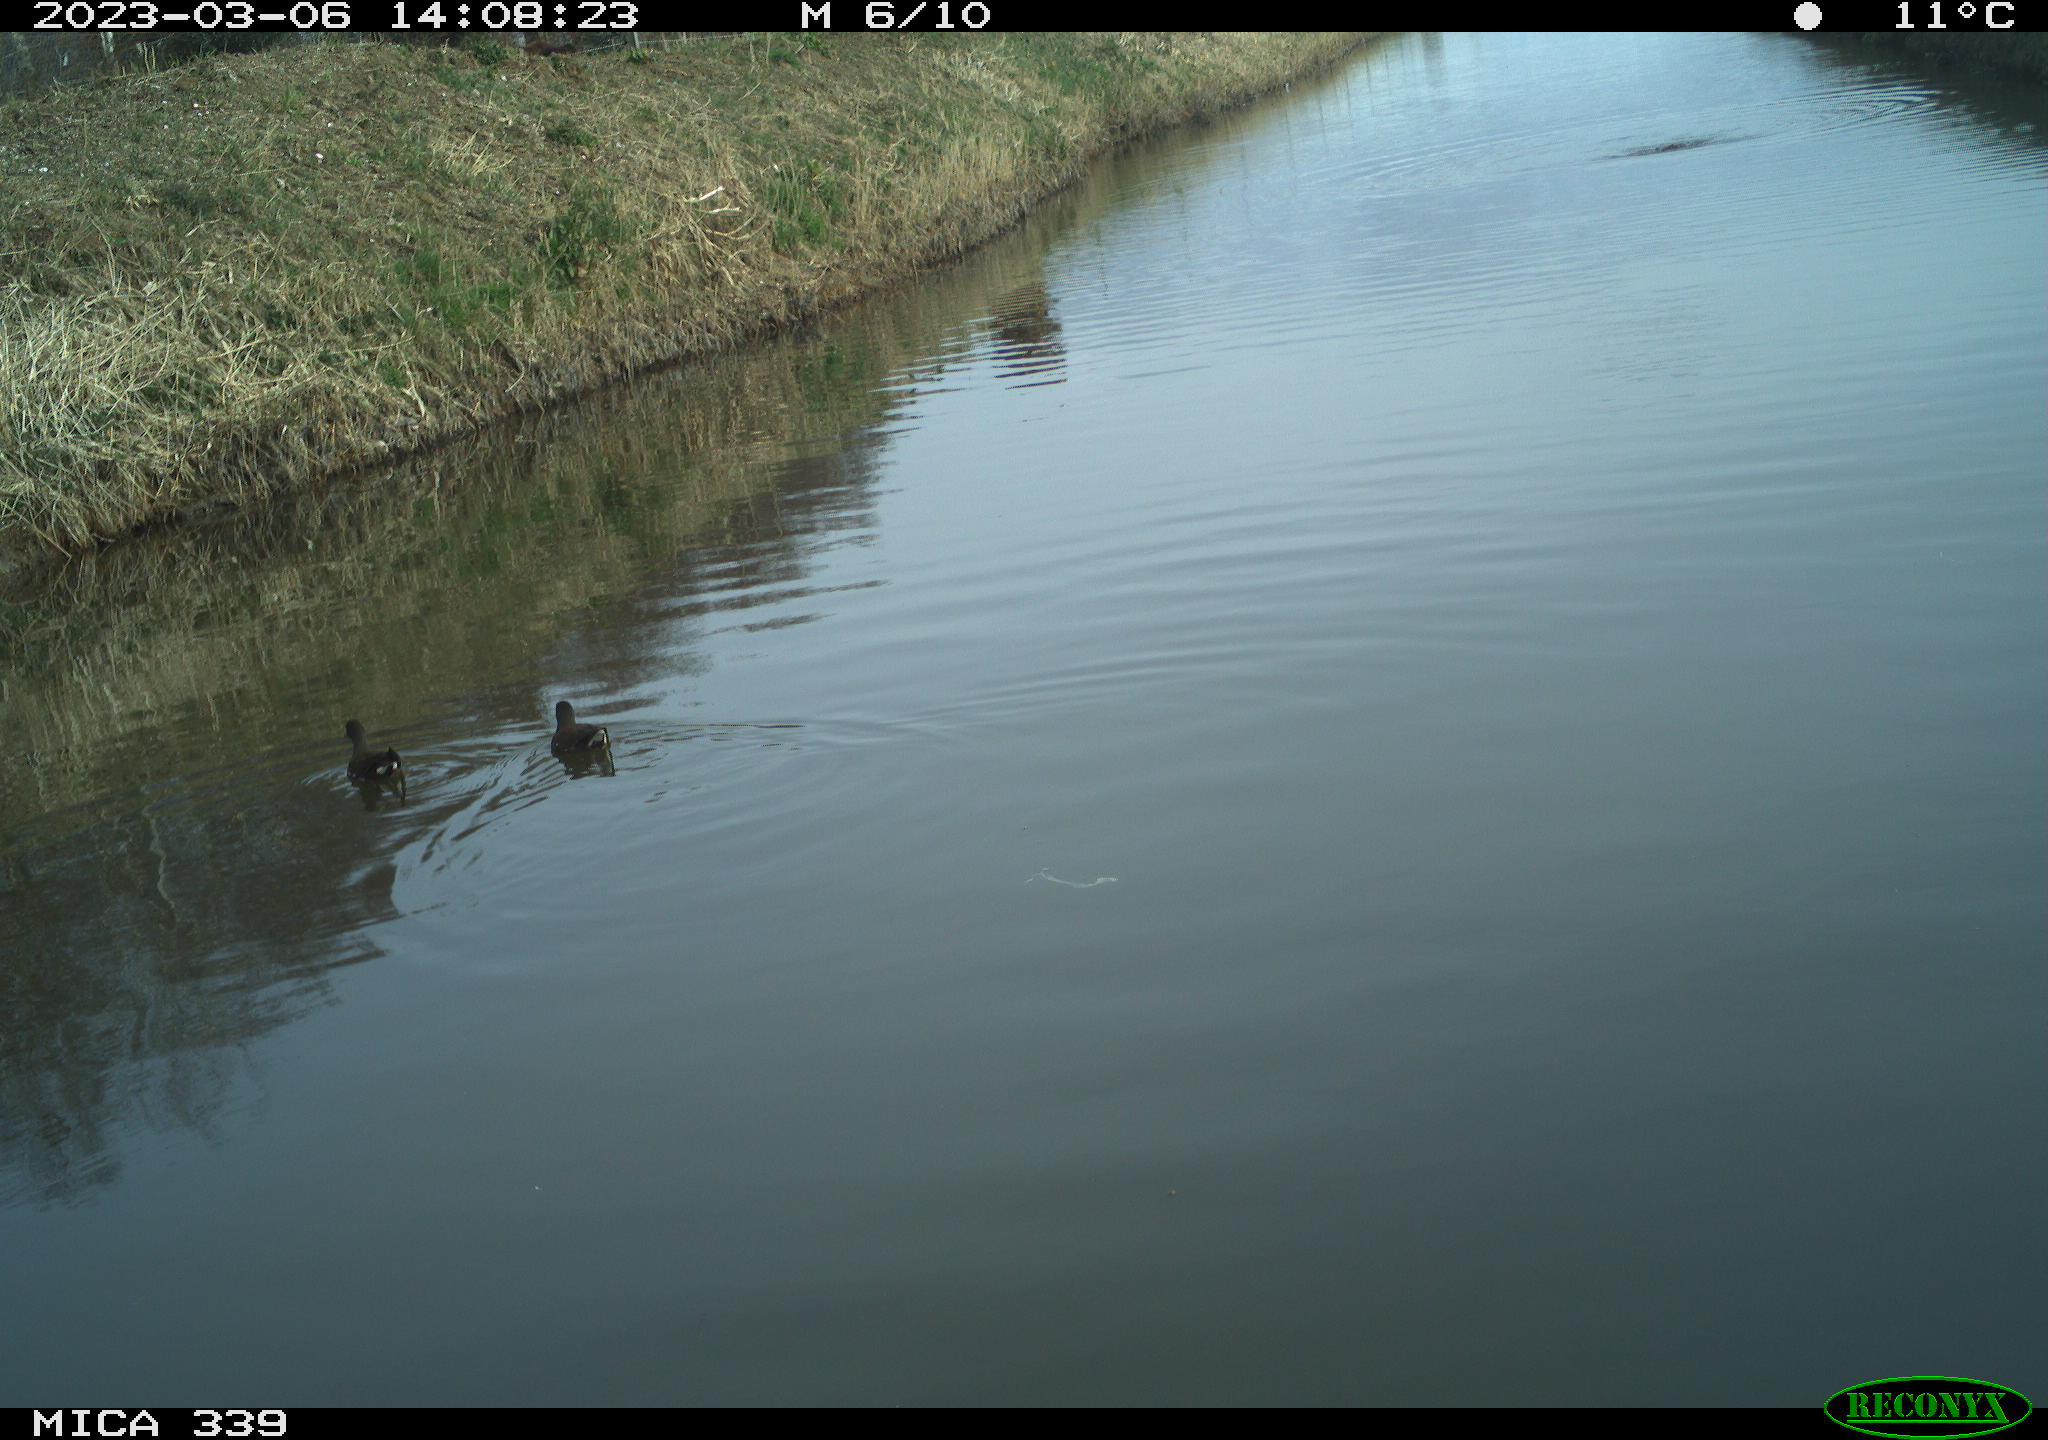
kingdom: Animalia
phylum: Chordata
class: Aves
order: Gruiformes
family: Rallidae
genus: Gallinula
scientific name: Gallinula chloropus
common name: Common moorhen
